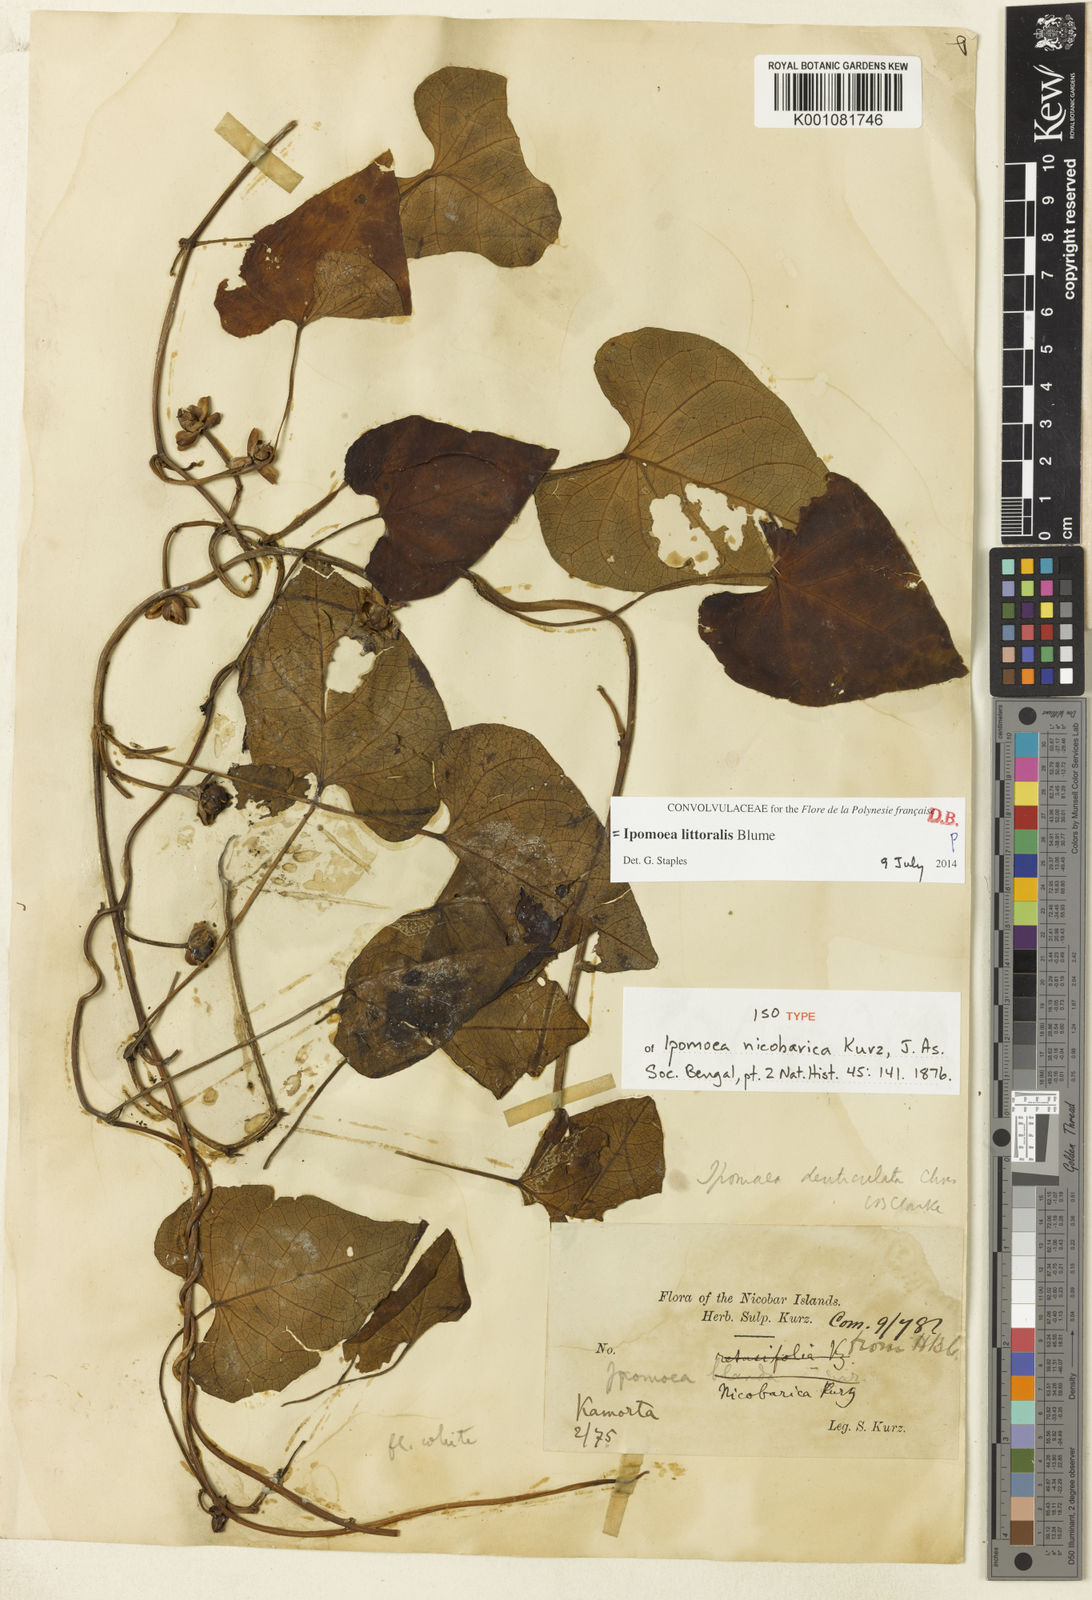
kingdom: Plantae
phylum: Tracheophyta
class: Magnoliopsida
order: Solanales
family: Convolvulaceae
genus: Ipomoea
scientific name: Ipomoea littoralis
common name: Coastal morning glory
